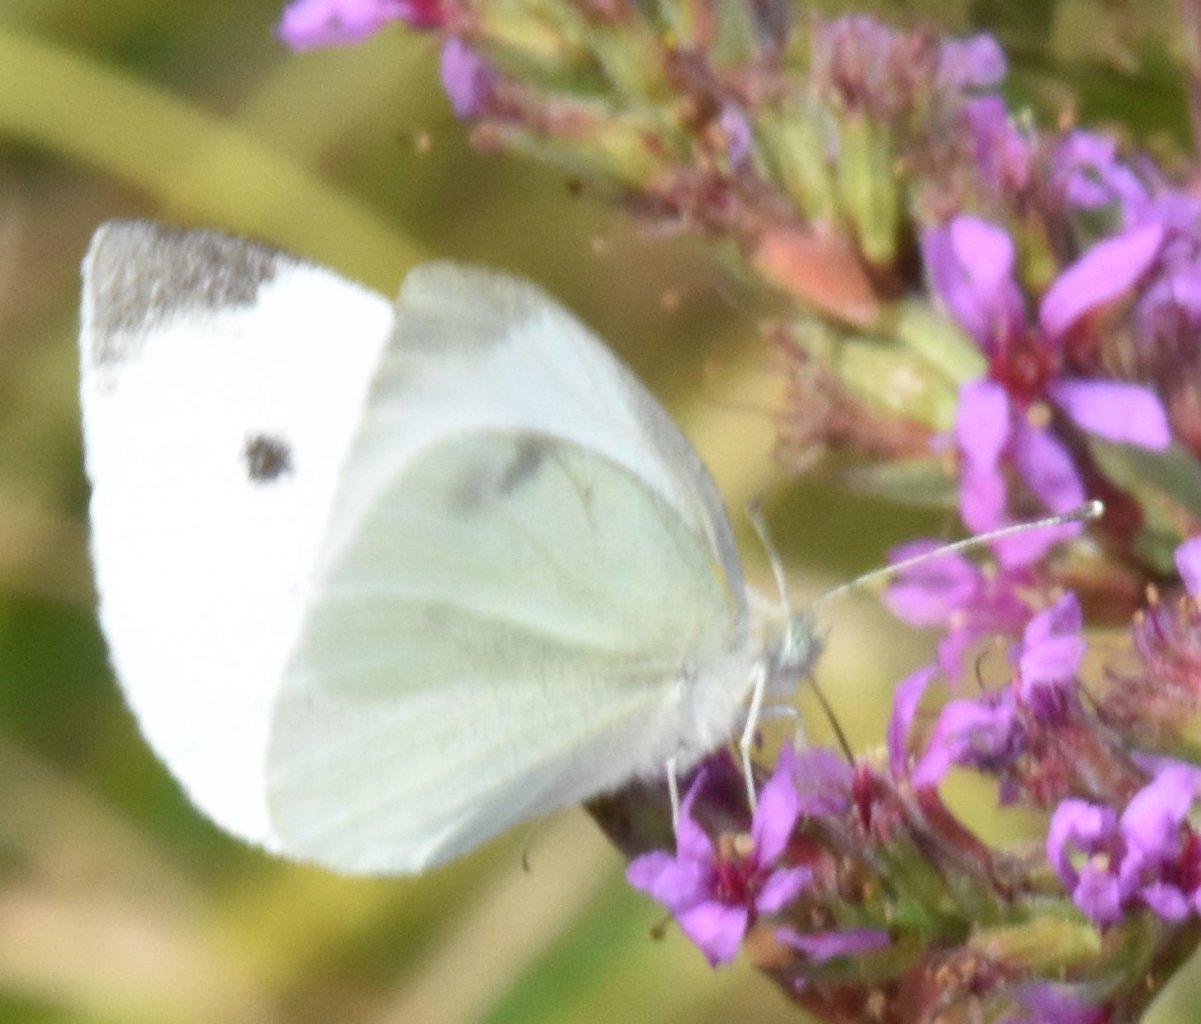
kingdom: Animalia
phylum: Arthropoda
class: Insecta
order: Lepidoptera
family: Pieridae
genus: Pieris
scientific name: Pieris rapae
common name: Cabbage White
